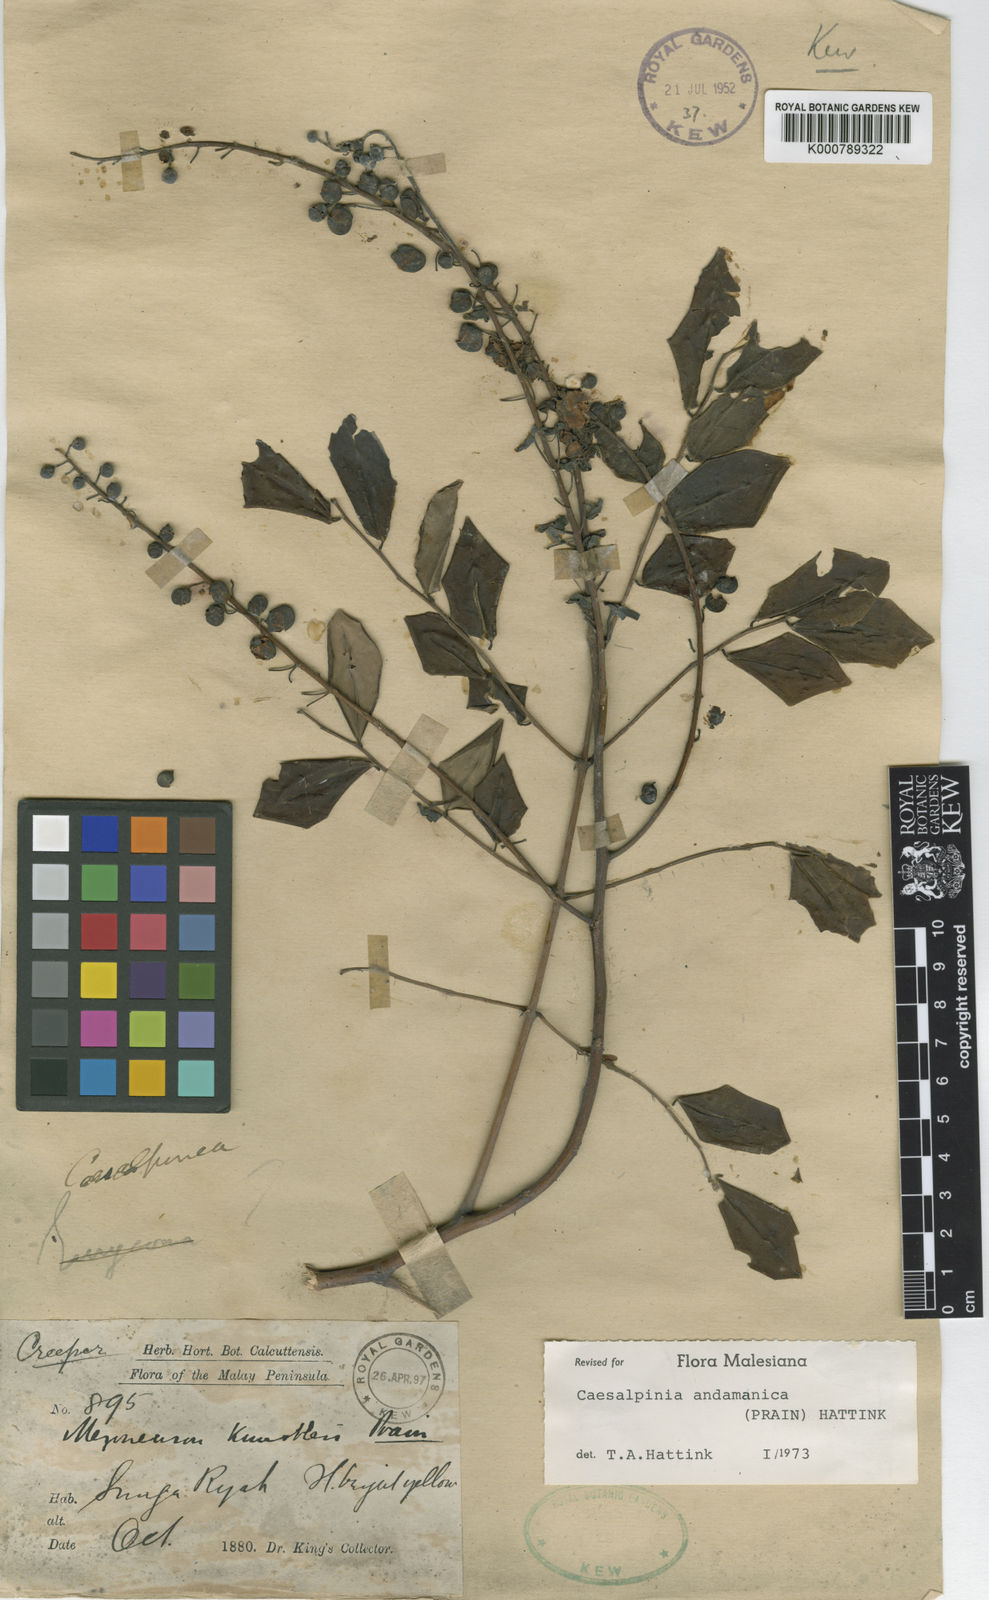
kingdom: Plantae
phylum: Tracheophyta
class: Magnoliopsida
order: Fabales
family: Fabaceae
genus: Guilandina
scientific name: Guilandina bonduc
